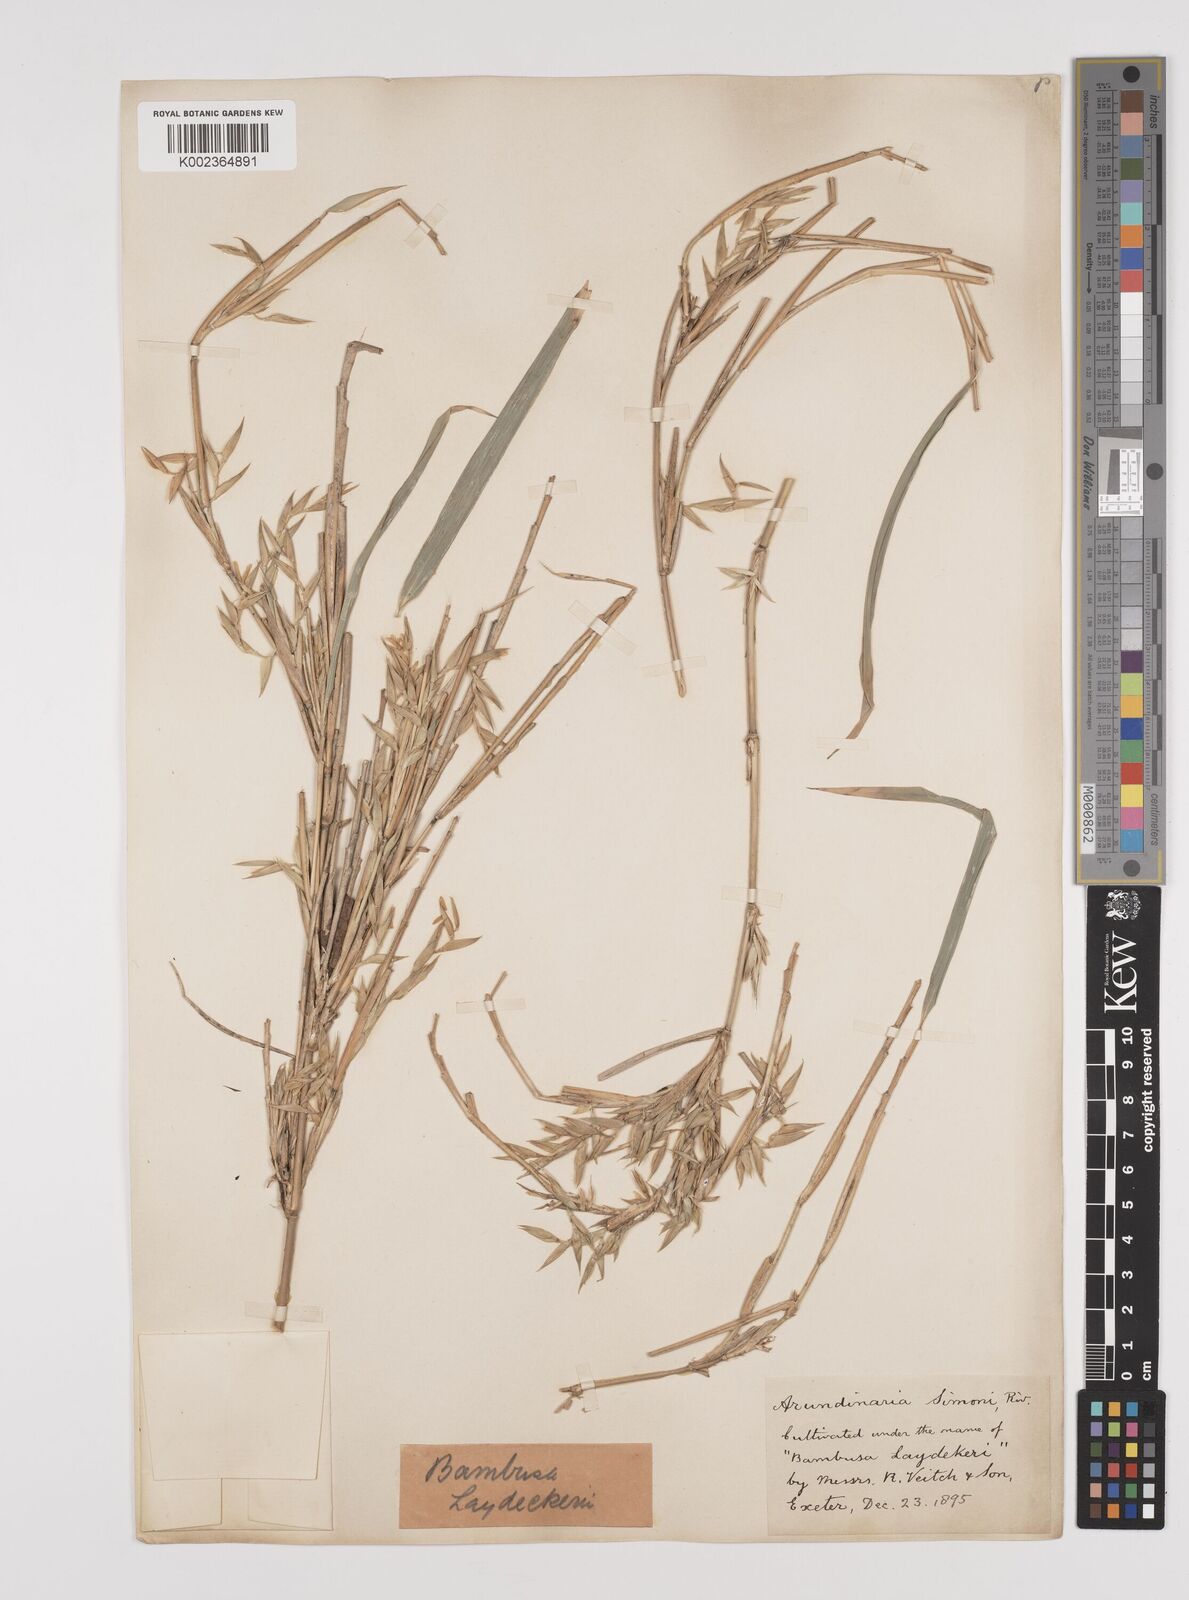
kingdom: Plantae
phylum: Tracheophyta
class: Liliopsida
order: Poales
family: Poaceae
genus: Pleioblastus
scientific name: Pleioblastus argenteostriatus
